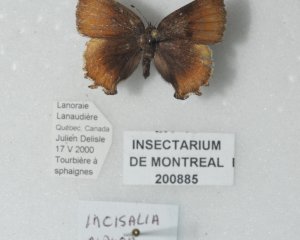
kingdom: Animalia
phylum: Arthropoda
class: Insecta
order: Lepidoptera
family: Lycaenidae
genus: Incisalia
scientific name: Incisalia niphon
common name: Eastern Pine Elfin
